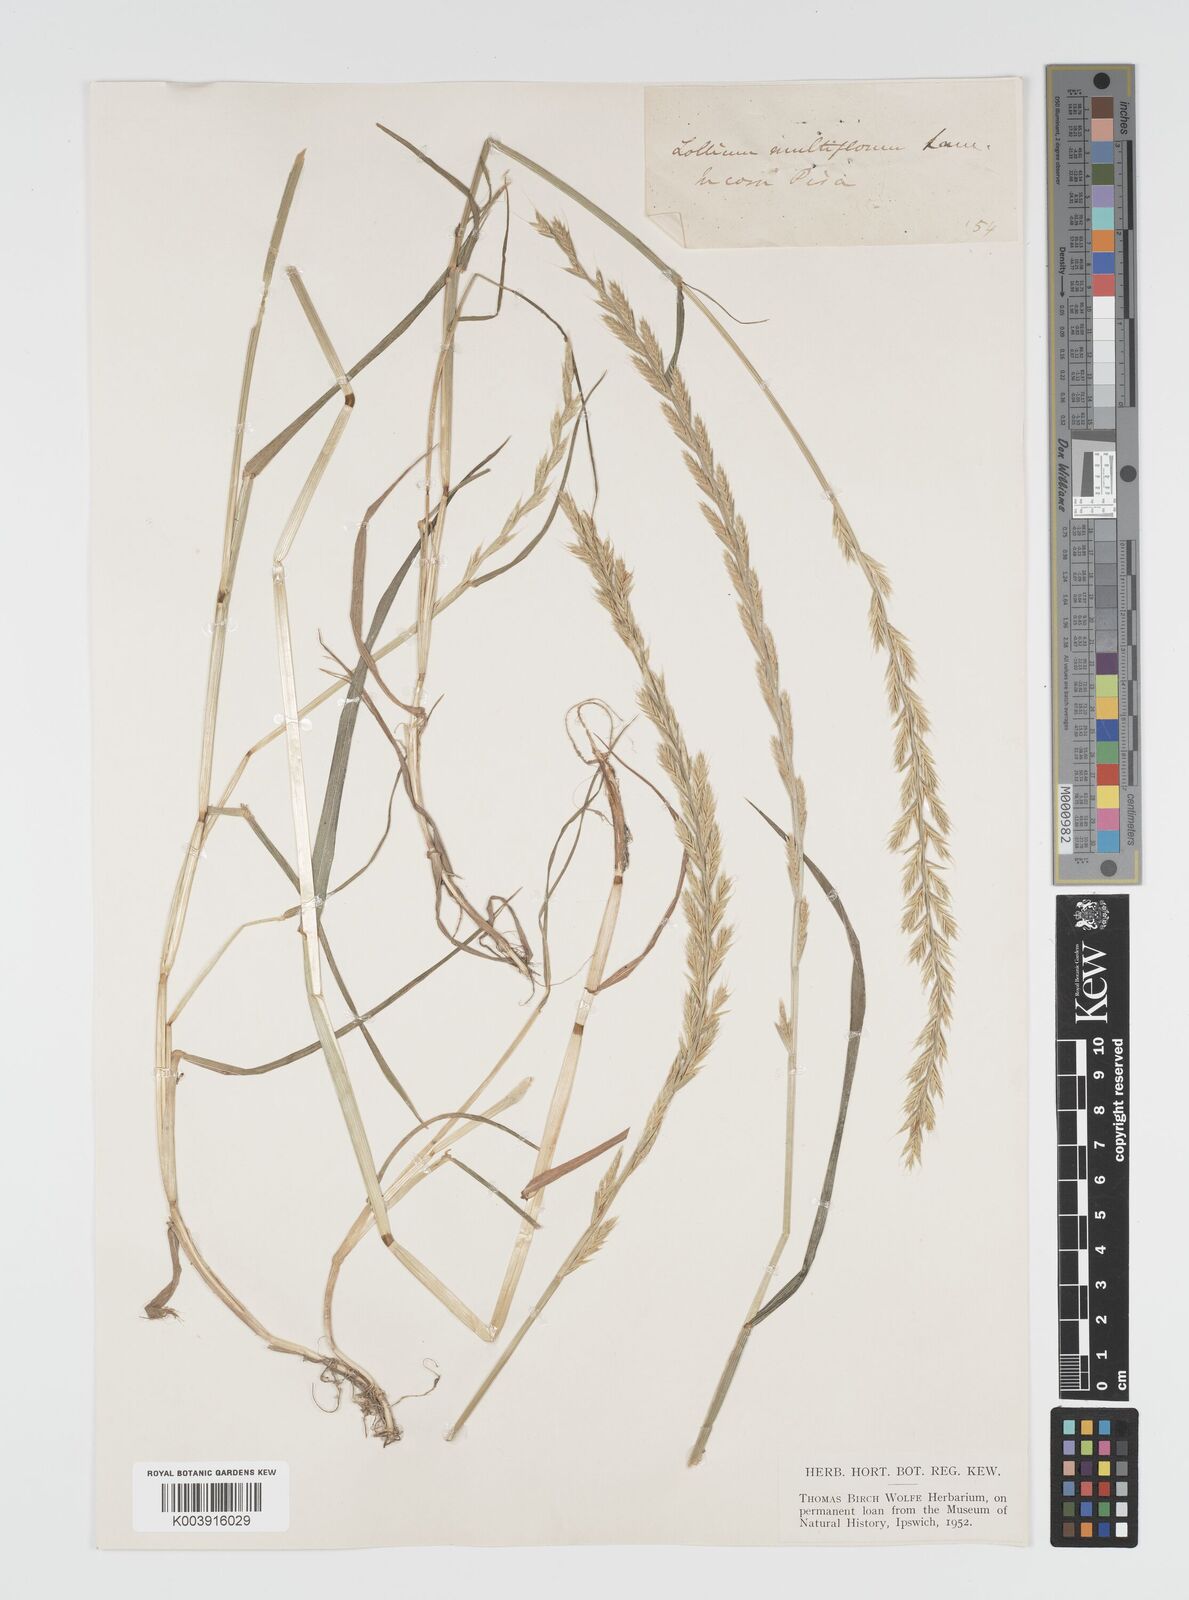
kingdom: Plantae
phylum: Tracheophyta
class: Liliopsida
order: Poales
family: Poaceae
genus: Lolium
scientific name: Lolium multiflorum
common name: Annual ryegrass
